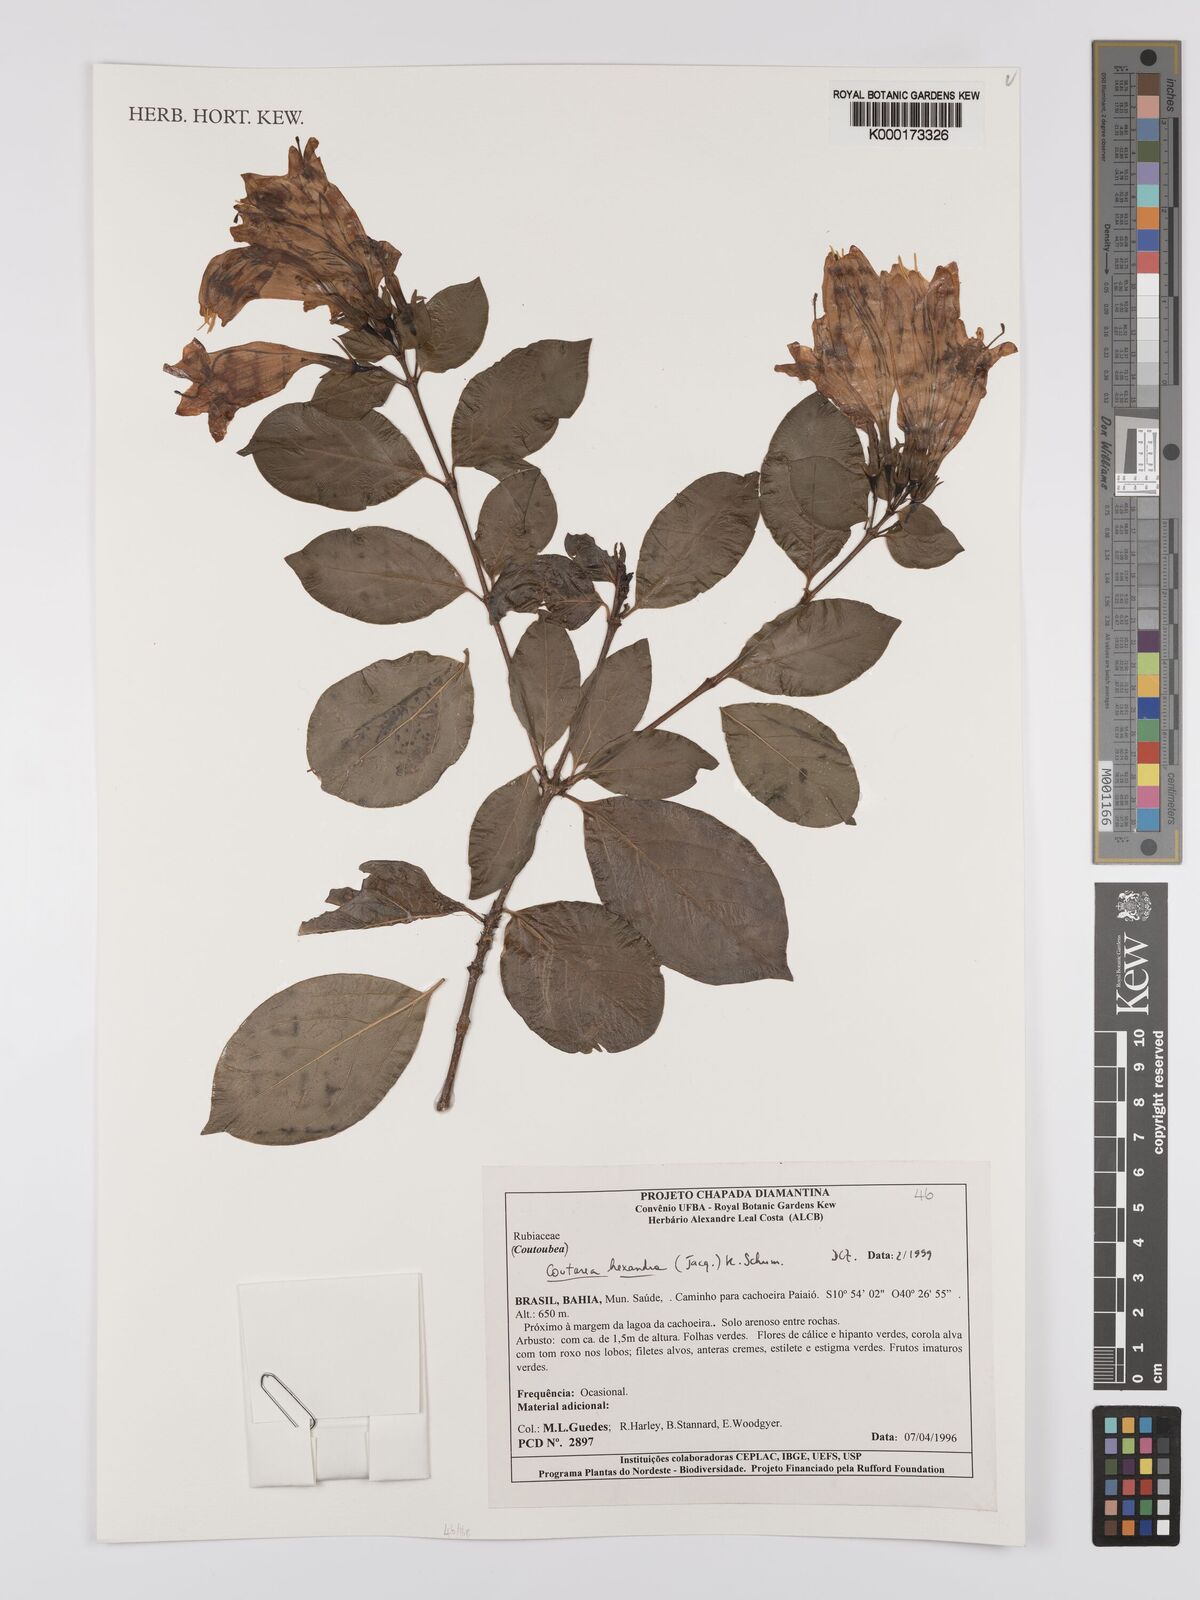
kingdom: Plantae
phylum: Tracheophyta
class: Magnoliopsida
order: Gentianales
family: Rubiaceae
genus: Coutarea
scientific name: Coutarea hexandra
